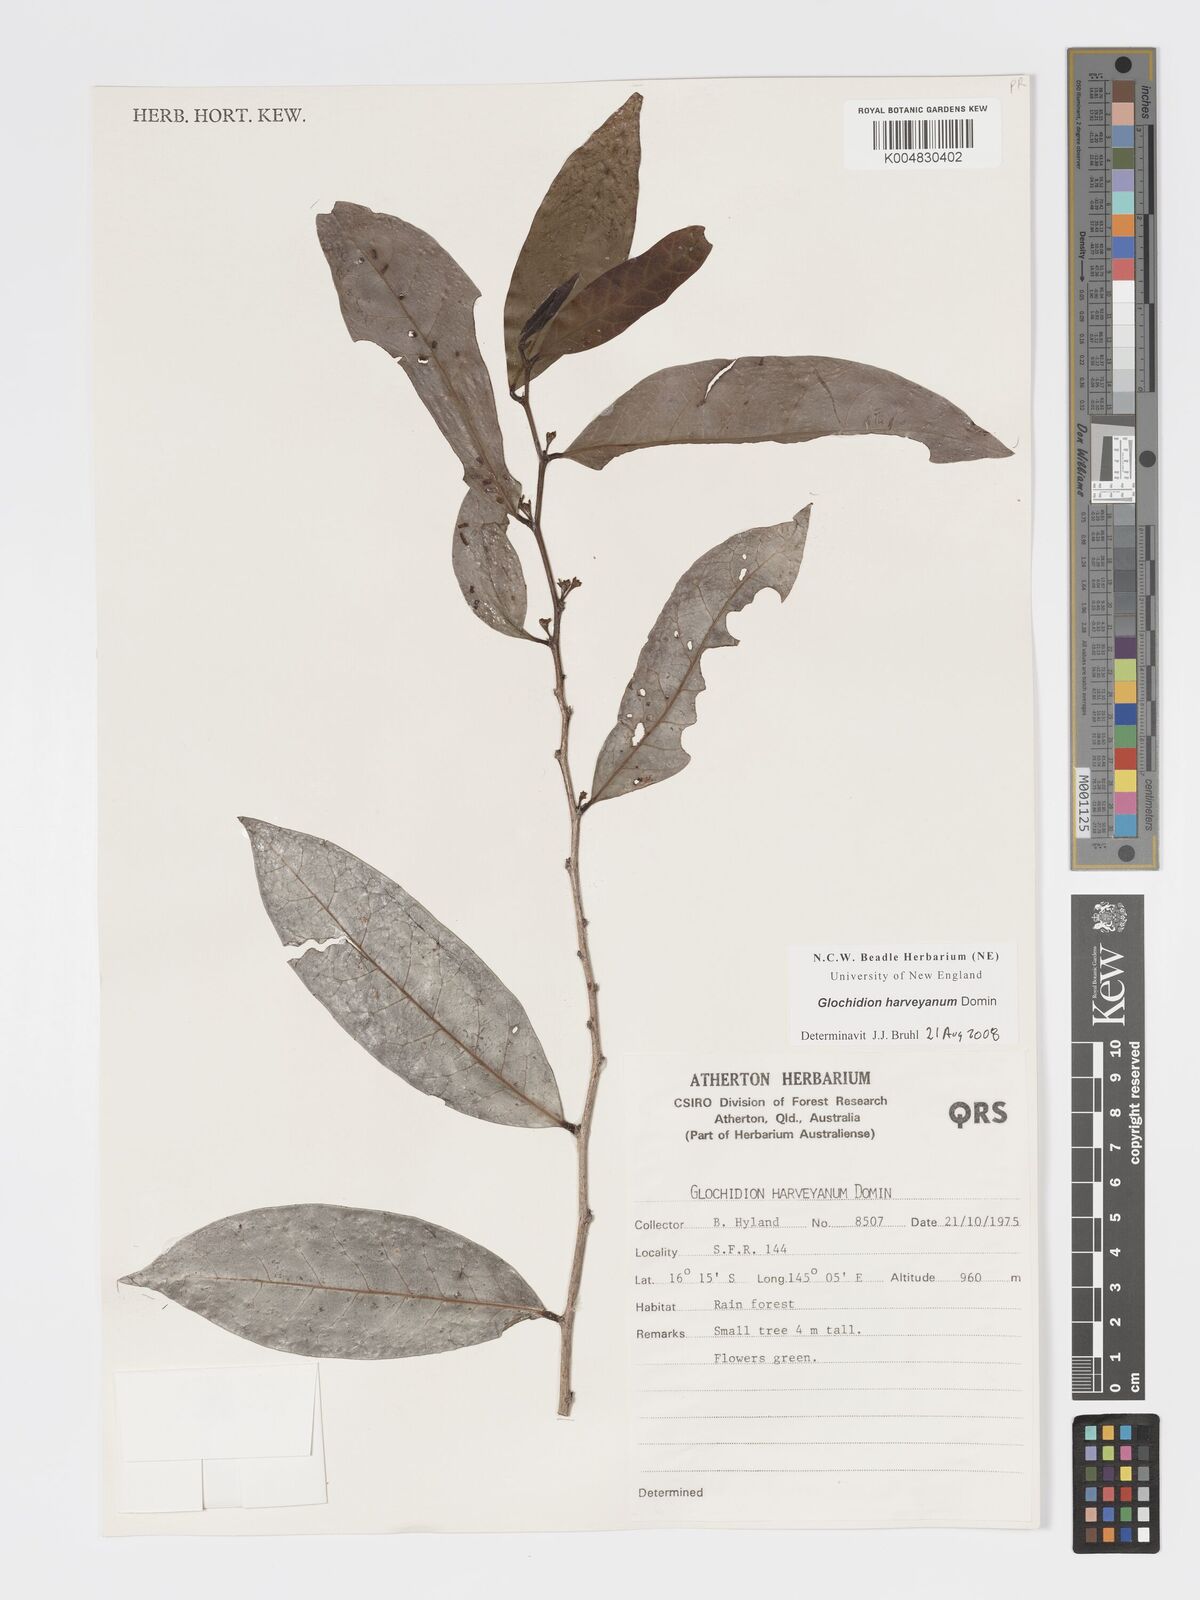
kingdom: Plantae
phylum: Tracheophyta
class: Magnoliopsida
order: Malpighiales
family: Phyllanthaceae
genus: Glochidion
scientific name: Glochidion harveyanum
